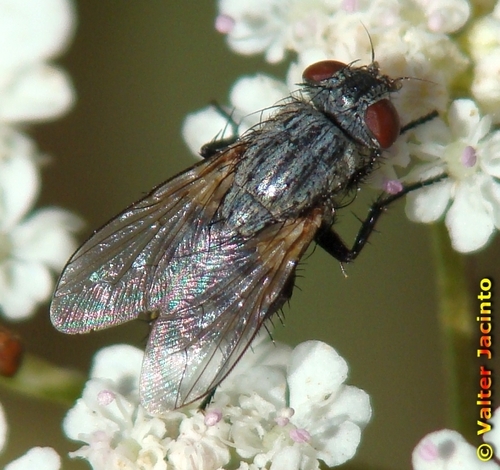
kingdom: Animalia
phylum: Arthropoda
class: Insecta
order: Diptera
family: Sarcophagidae
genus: Sarcophila
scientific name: Sarcophila
